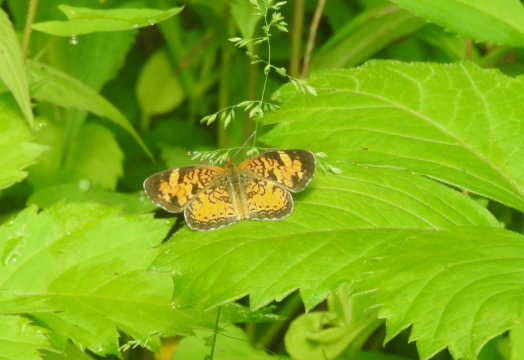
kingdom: Animalia
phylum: Arthropoda
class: Insecta
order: Lepidoptera
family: Nymphalidae
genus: Phyciodes
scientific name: Phyciodes tharos
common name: Northern Crescent
